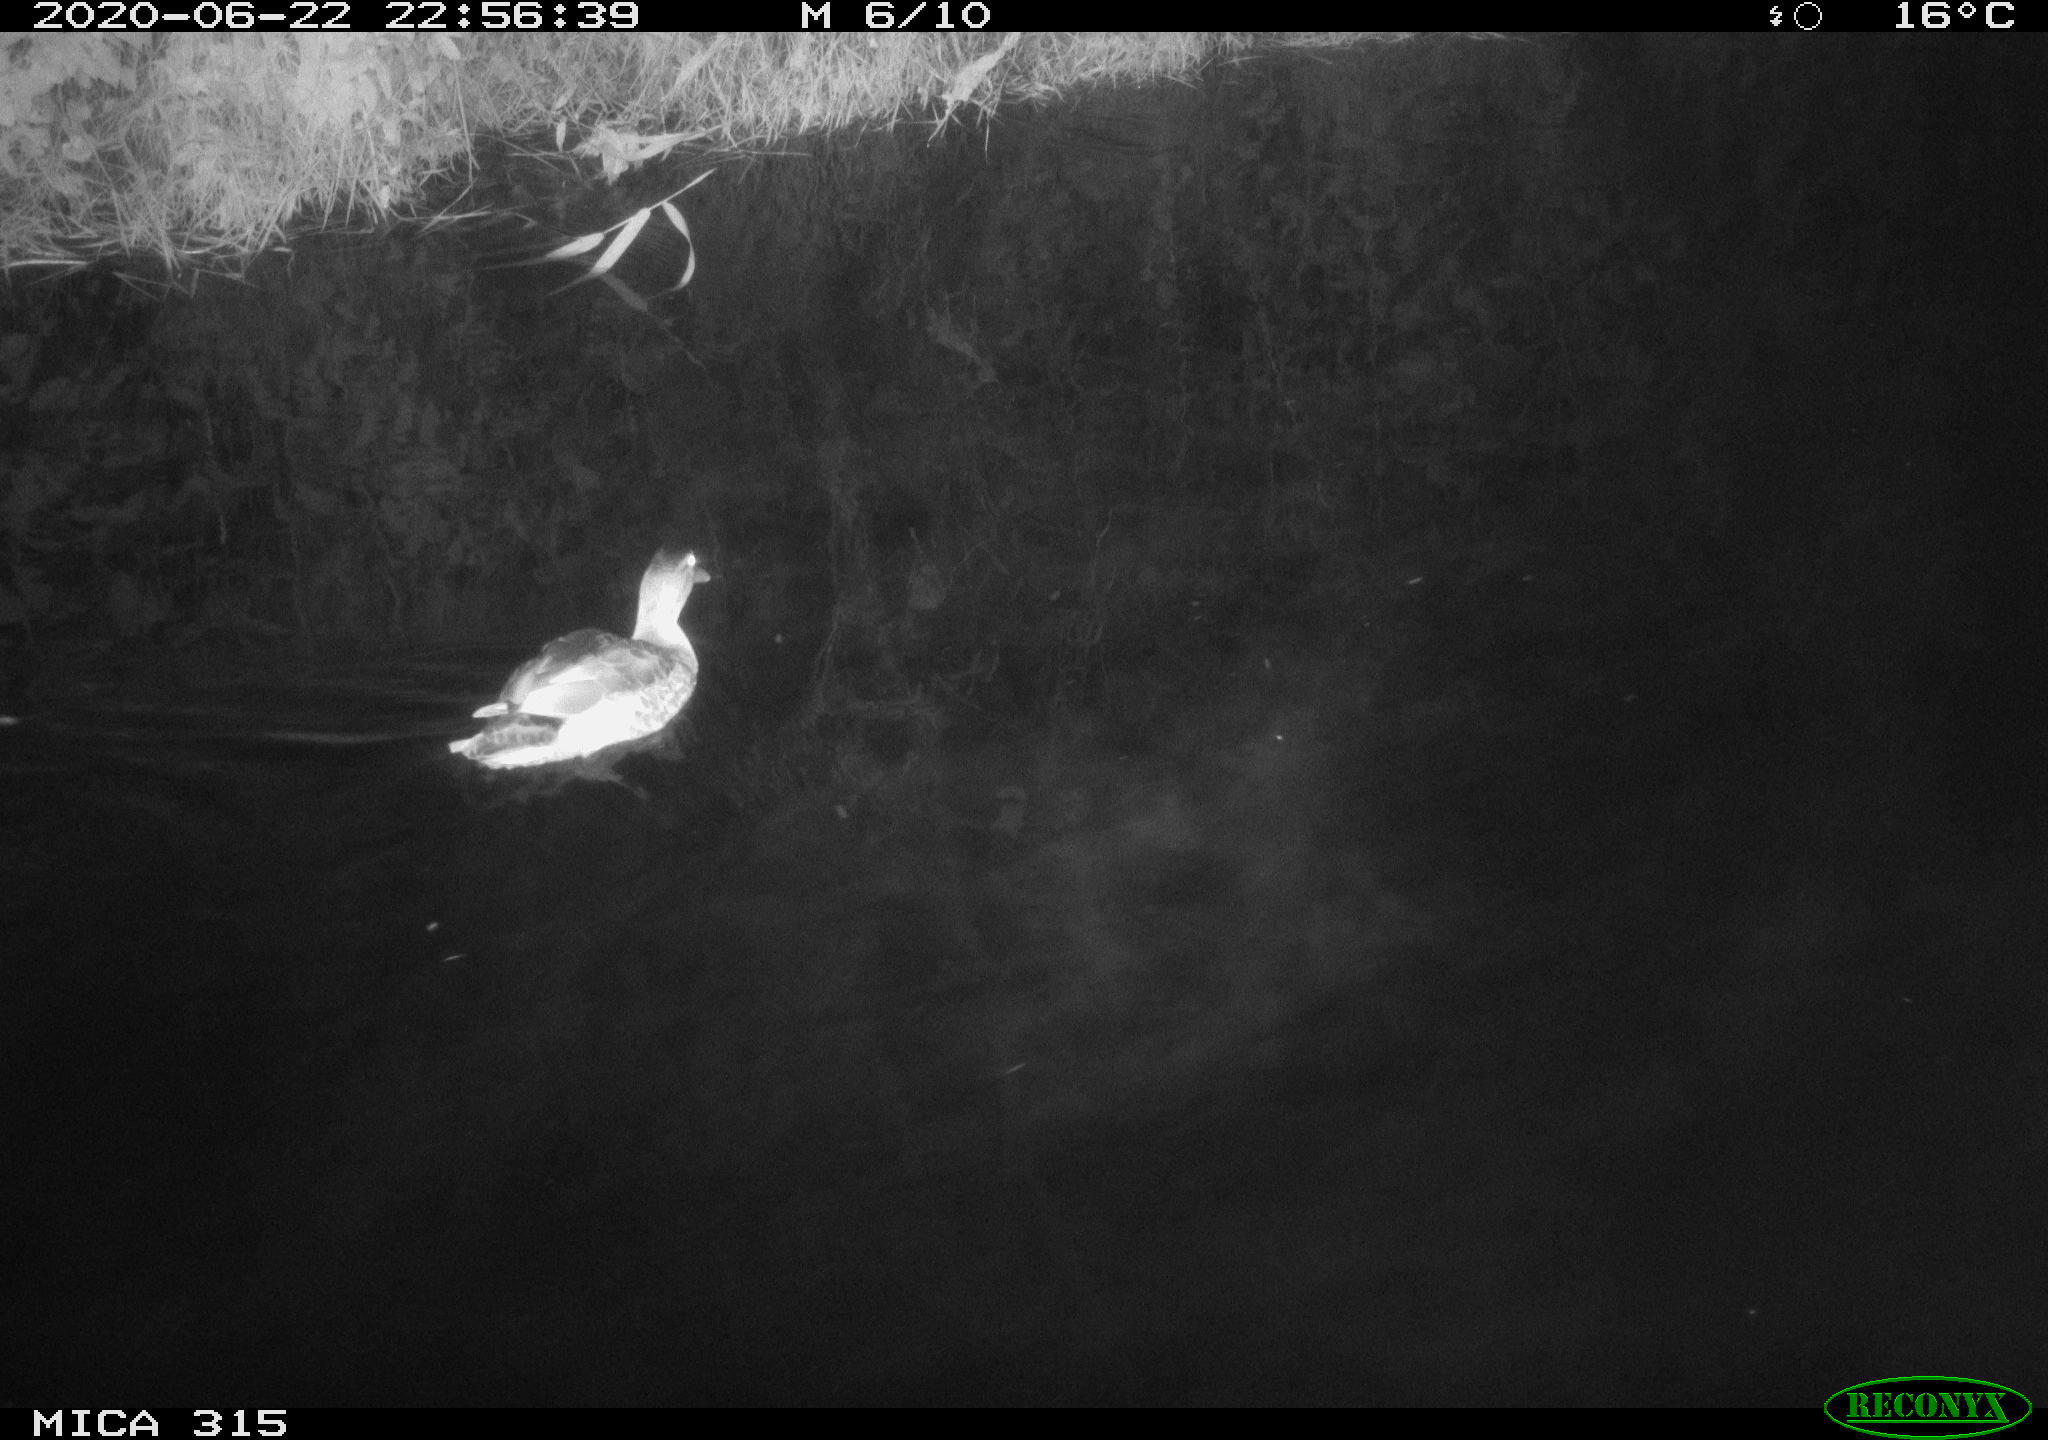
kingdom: Animalia
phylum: Chordata
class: Aves
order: Anseriformes
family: Anatidae
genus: Anas
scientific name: Anas platyrhynchos
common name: Mallard
